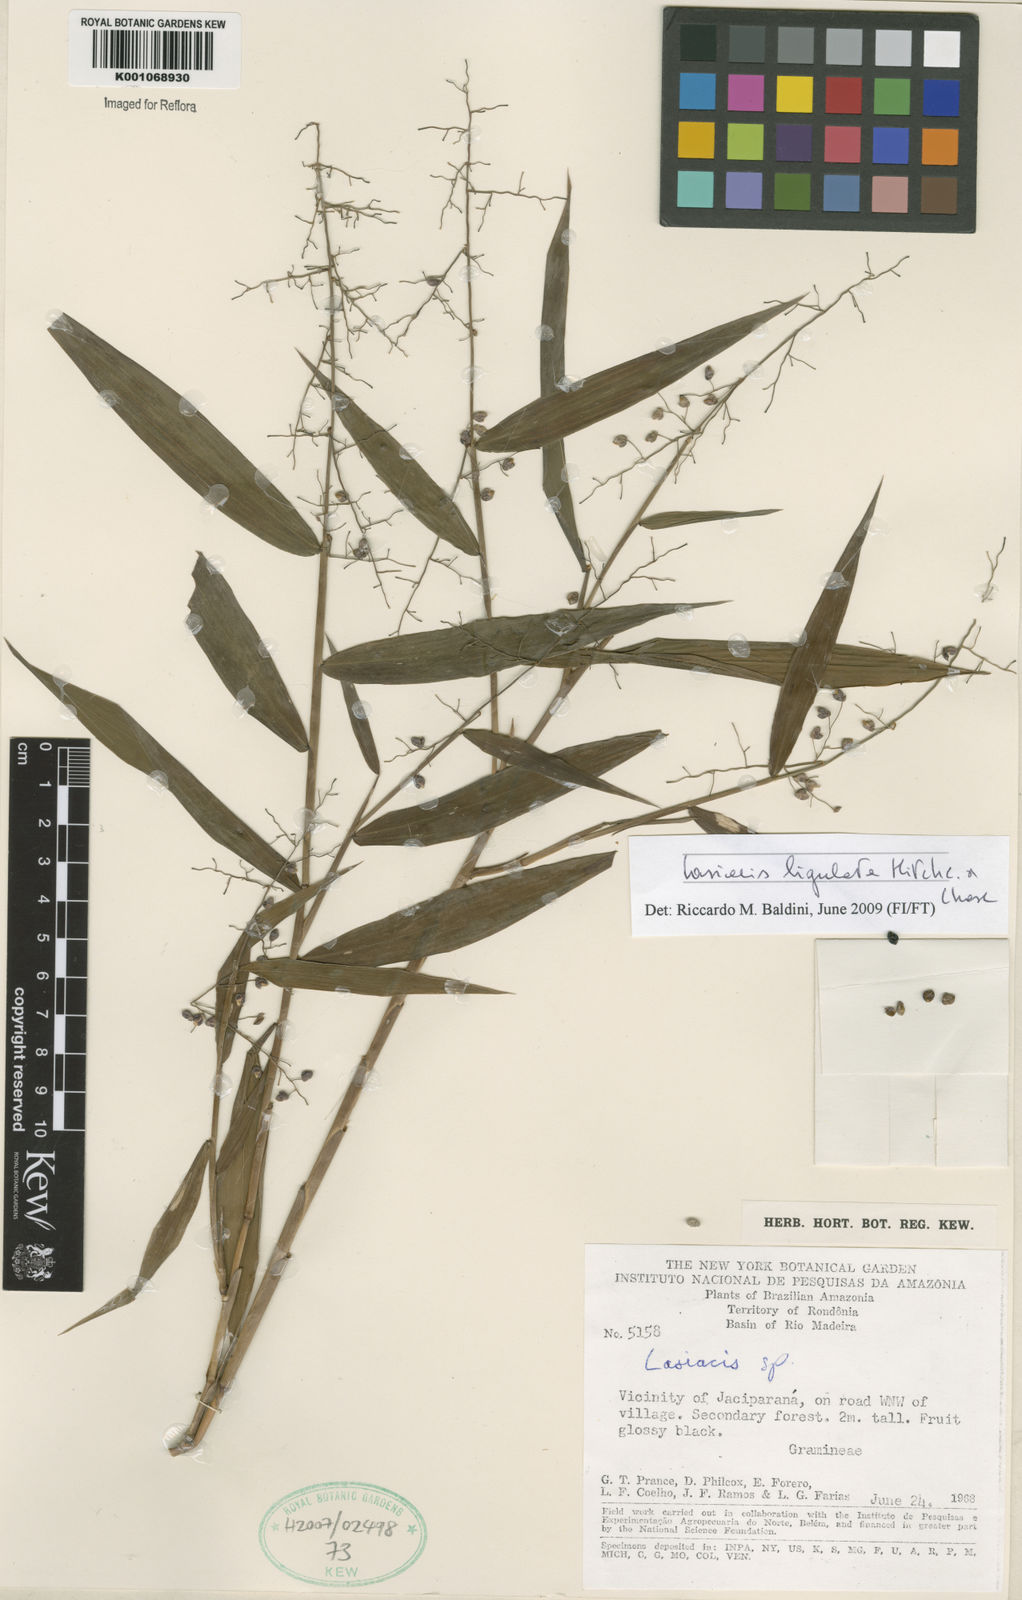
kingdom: Plantae
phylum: Tracheophyta
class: Liliopsida
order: Poales
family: Poaceae
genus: Lasiacis
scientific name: Lasiacis ligulata
